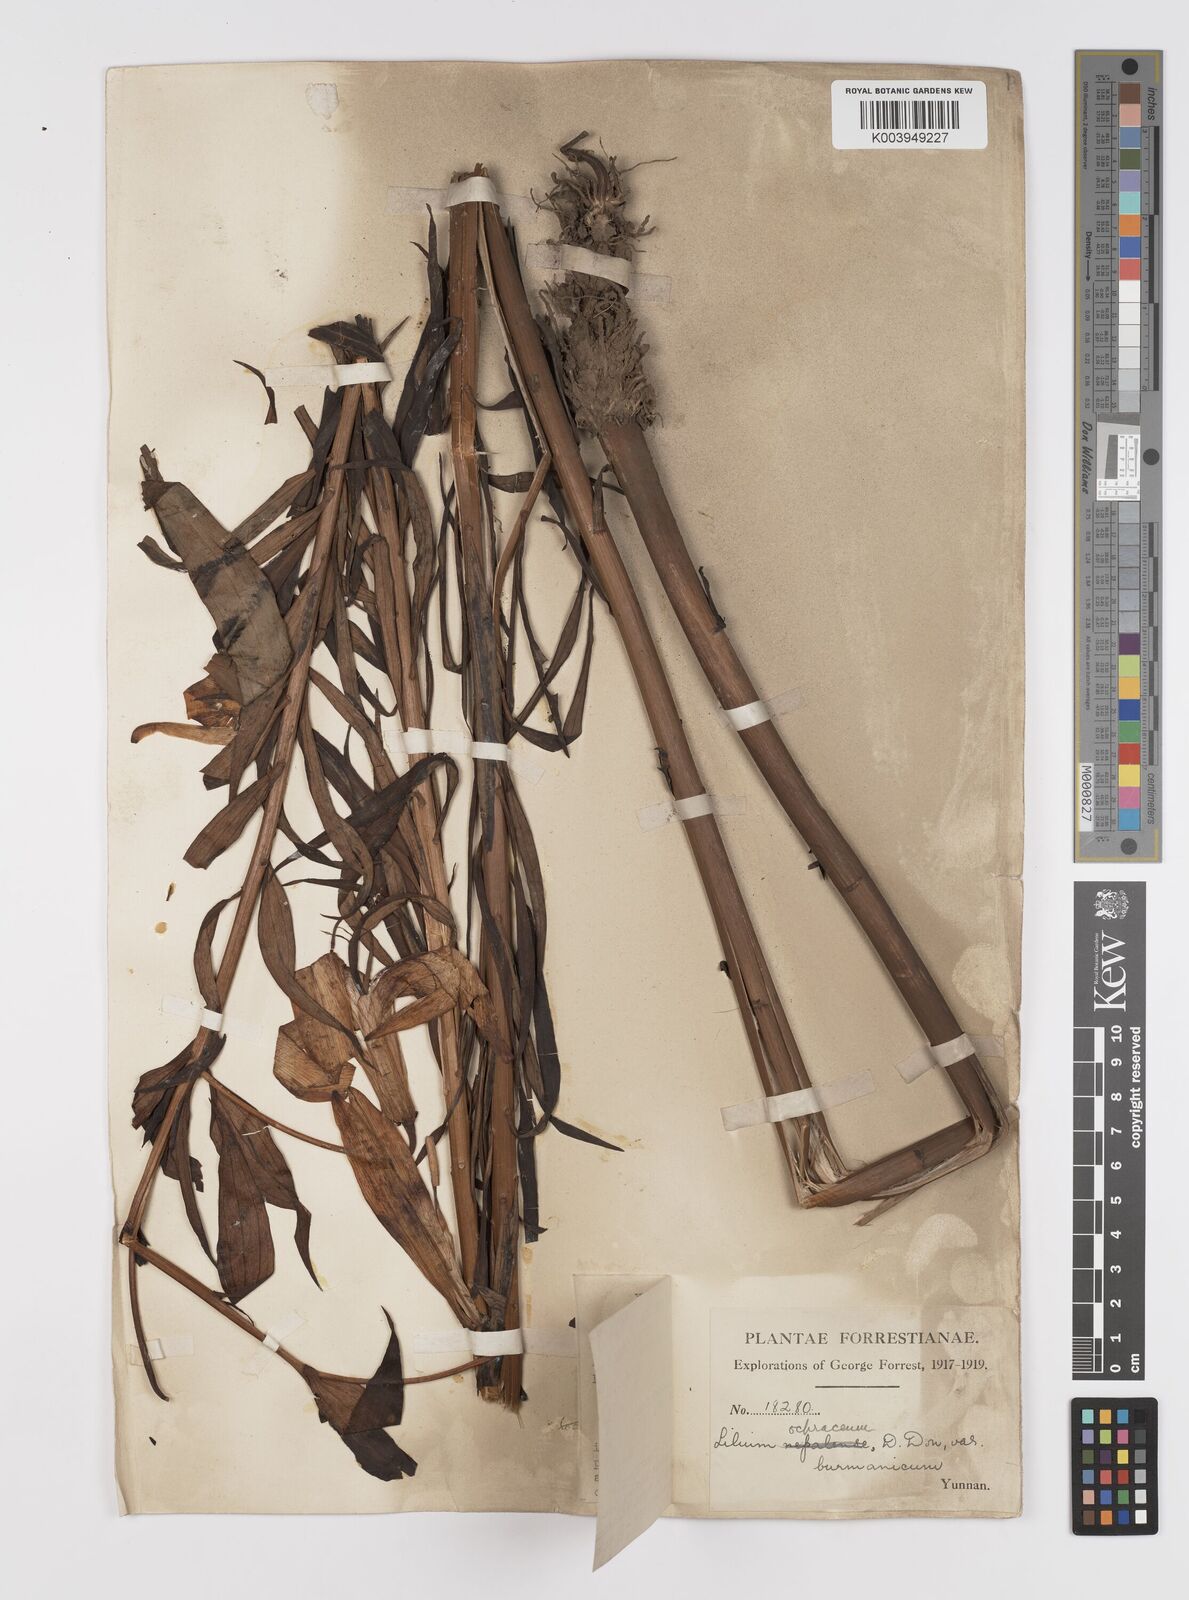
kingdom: Plantae
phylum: Tracheophyta
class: Liliopsida
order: Liliales
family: Liliaceae
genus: Lilium
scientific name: Lilium primulinum
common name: Ochre lily
